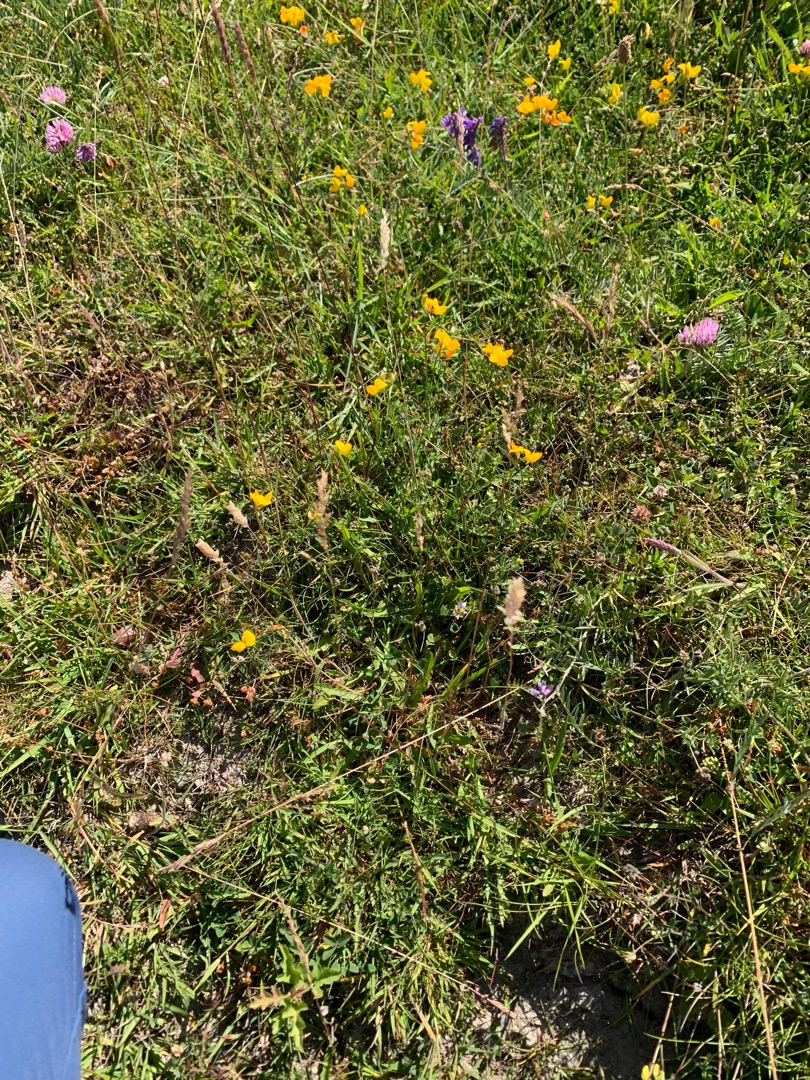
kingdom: Plantae
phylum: Tracheophyta
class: Liliopsida
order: Poales
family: Poaceae
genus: Holcus
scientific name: Holcus lanatus
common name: Fløjlsgræs
